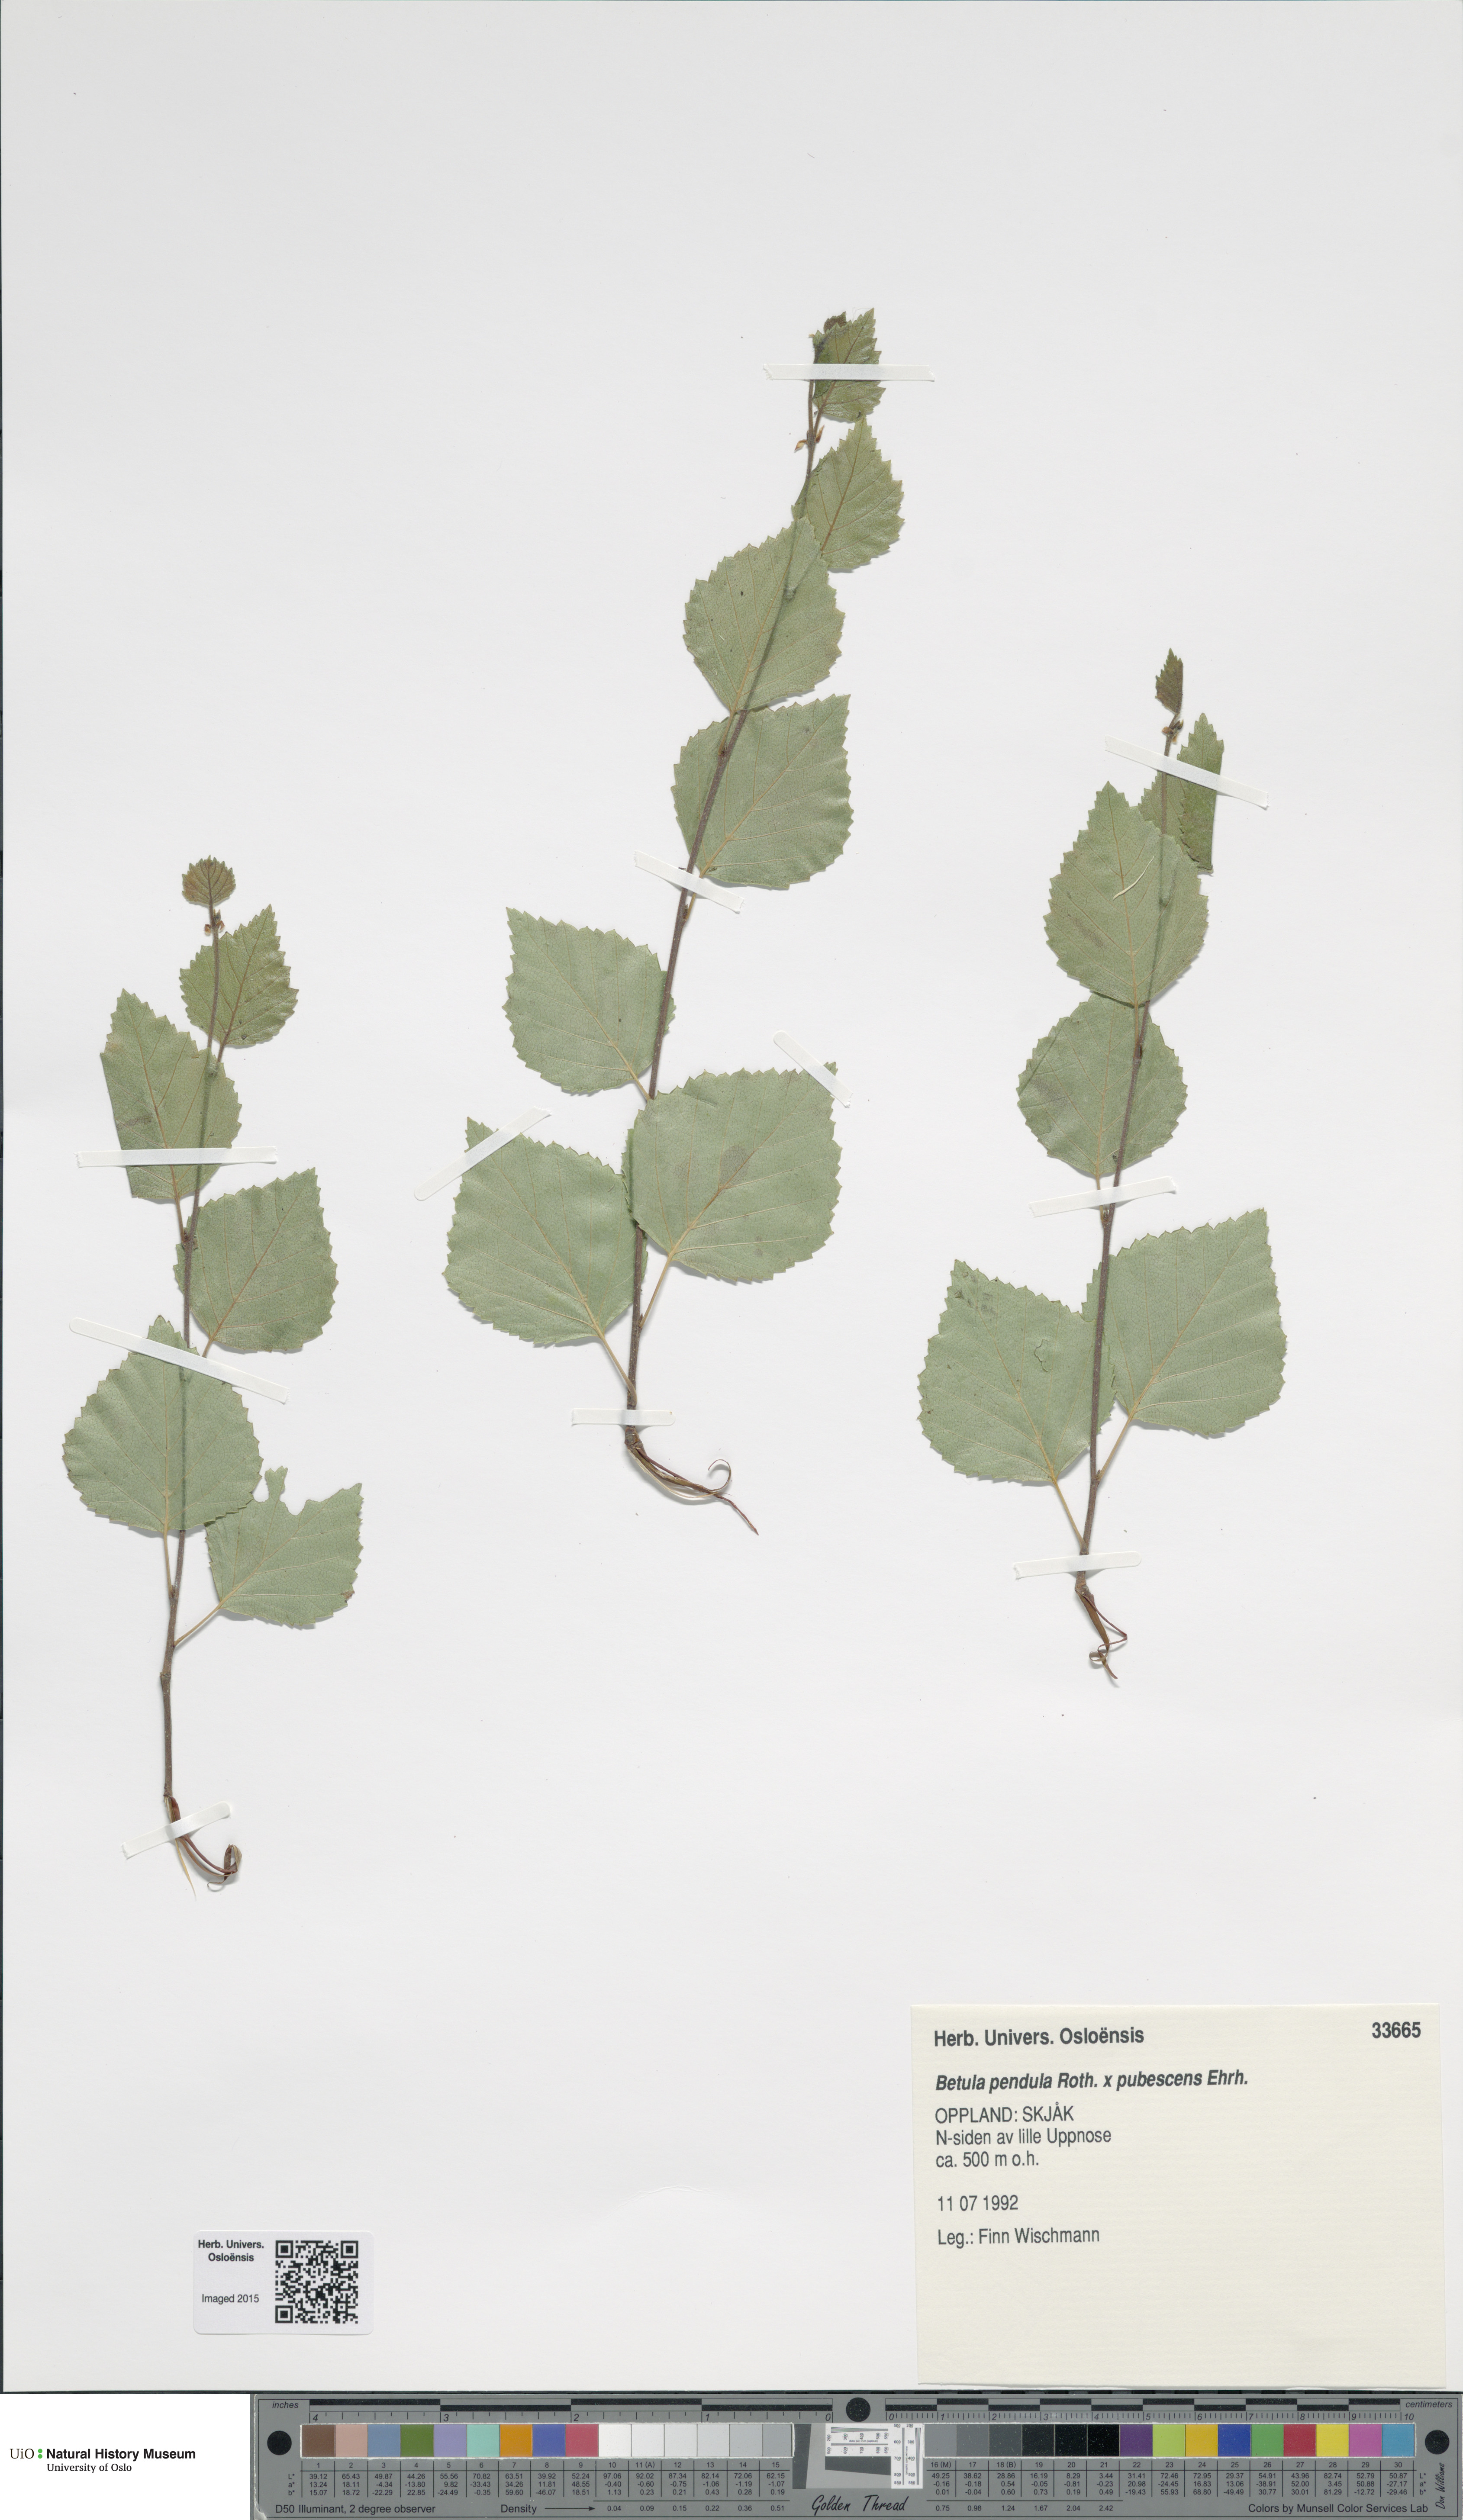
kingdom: Plantae
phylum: Tracheophyta
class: Magnoliopsida
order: Fagales
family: Betulaceae
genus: Betula
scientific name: Betula
